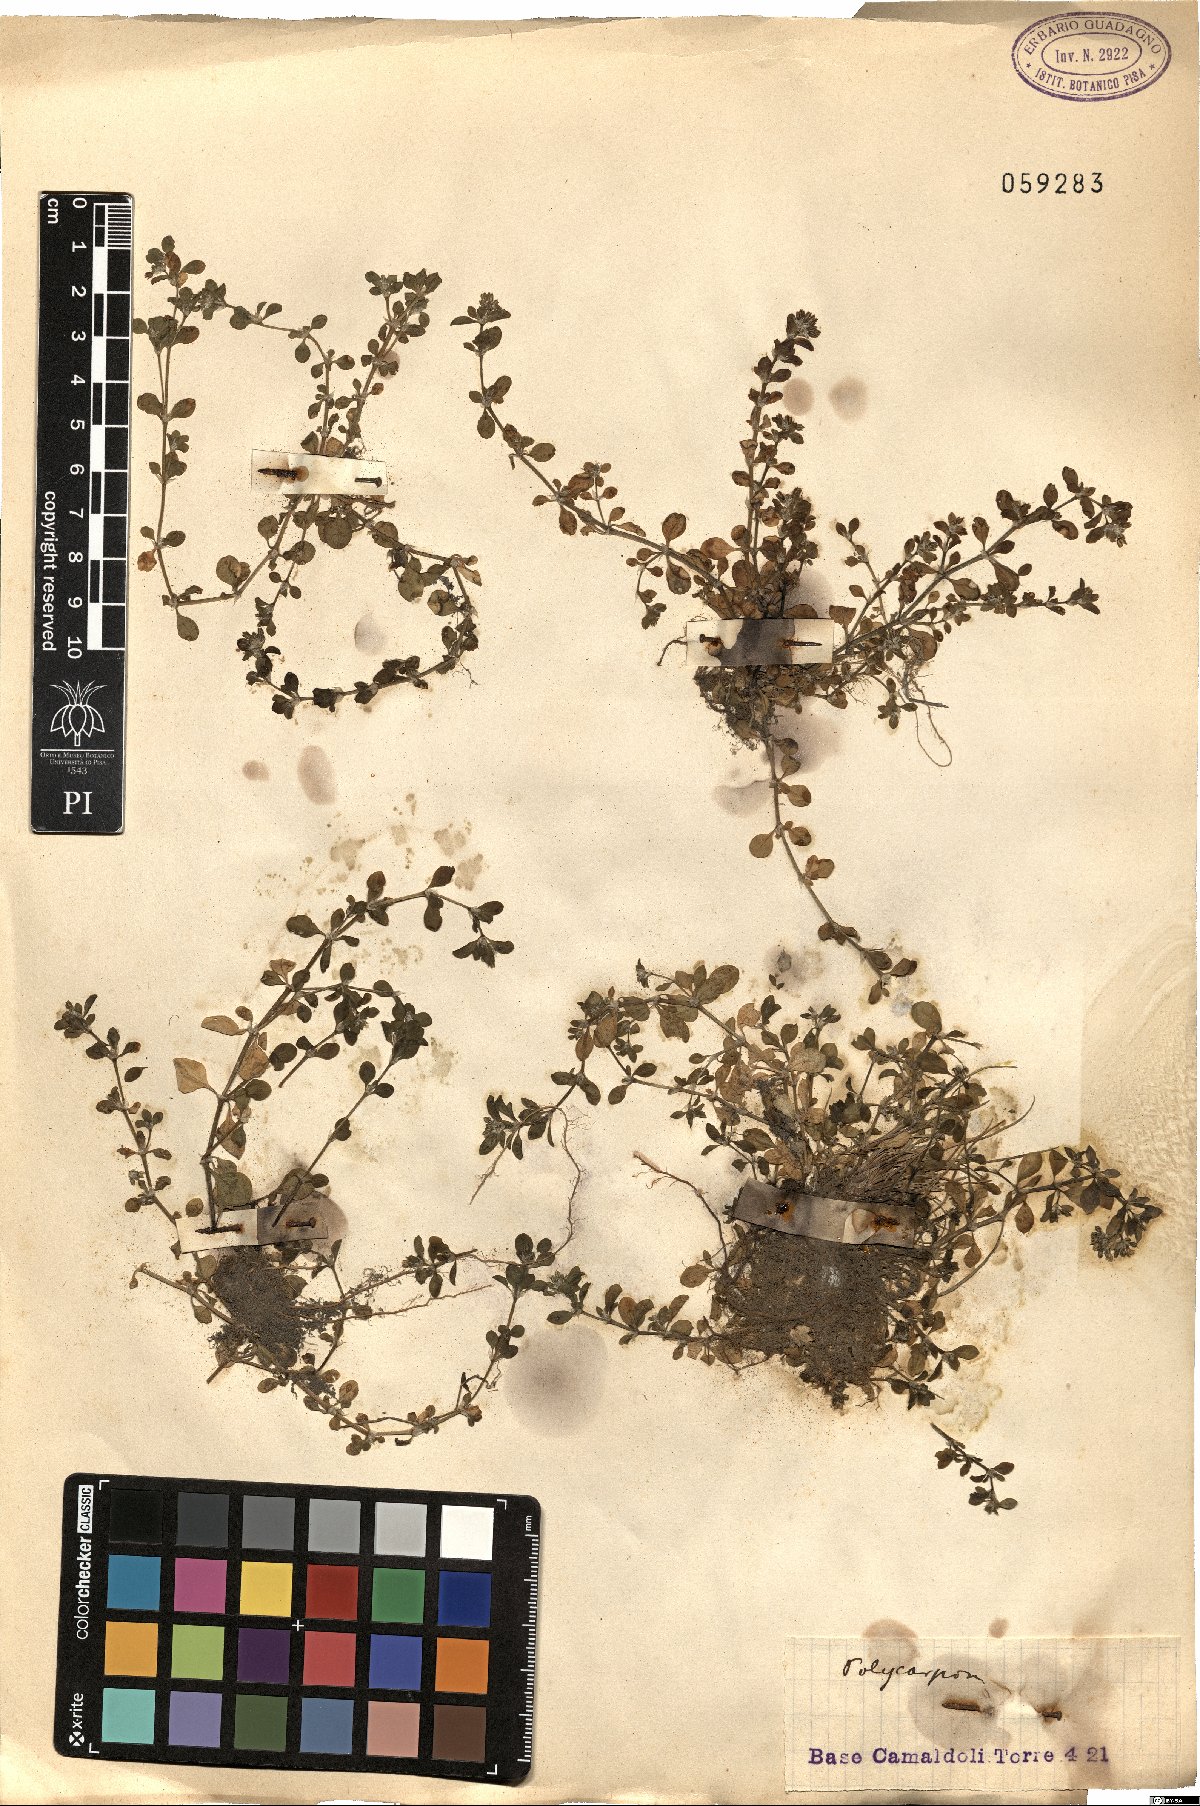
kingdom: Plantae
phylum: Tracheophyta
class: Magnoliopsida
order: Caryophyllales
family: Caryophyllaceae
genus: Polycarpon
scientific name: Polycarpon
